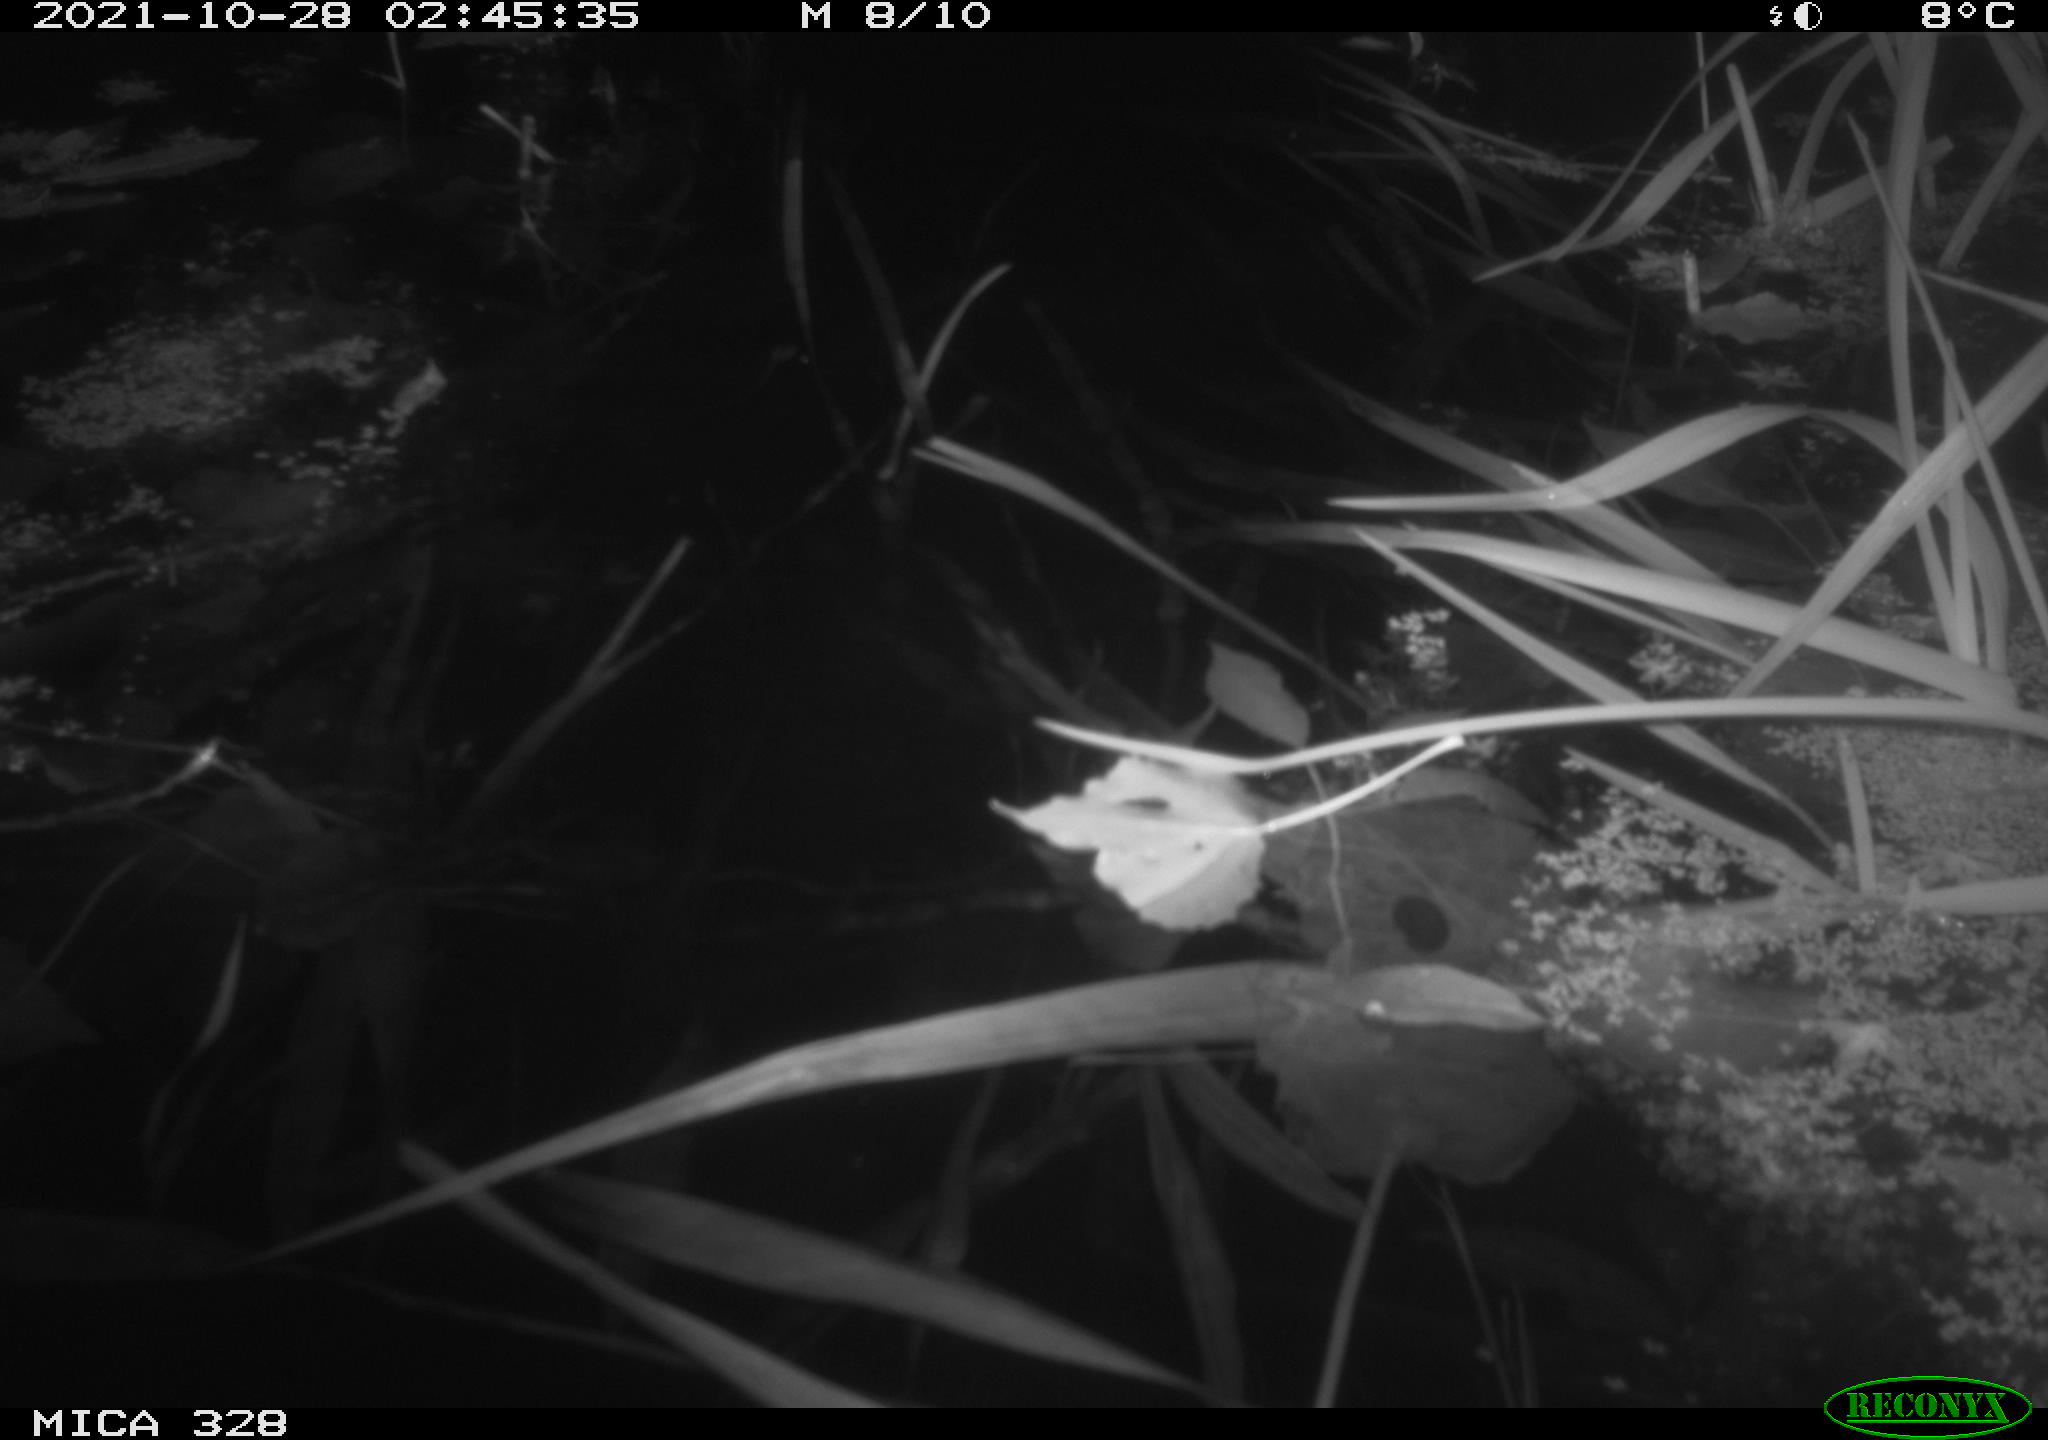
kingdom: Animalia
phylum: Chordata
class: Mammalia
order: Rodentia
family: Cricetidae
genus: Ondatra
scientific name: Ondatra zibethicus
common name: Muskrat
